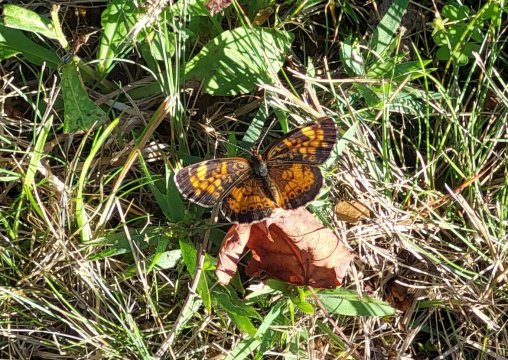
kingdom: Animalia
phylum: Arthropoda
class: Insecta
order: Lepidoptera
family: Nymphalidae
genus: Phyciodes
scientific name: Phyciodes tharos
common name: Northern Crescent
